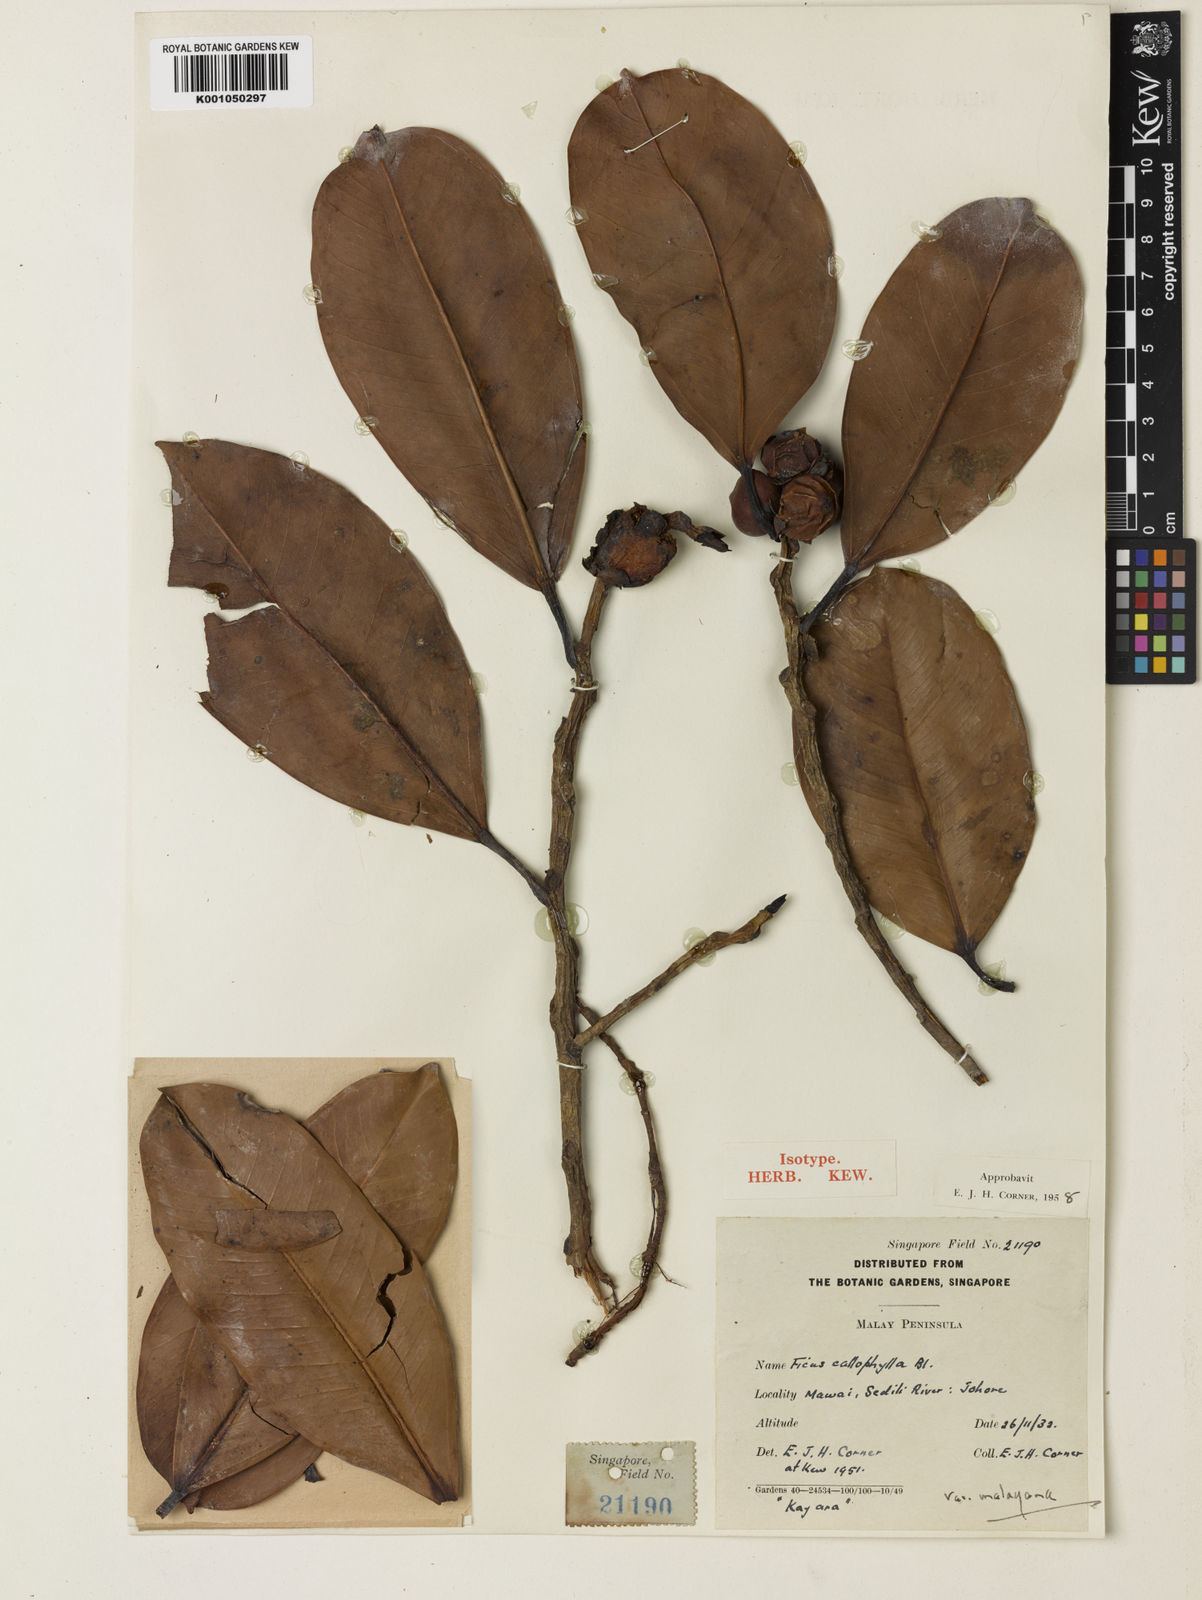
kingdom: Plantae
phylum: Tracheophyta
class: Magnoliopsida
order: Rosales
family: Moraceae
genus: Ficus
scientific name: Ficus callophylla
